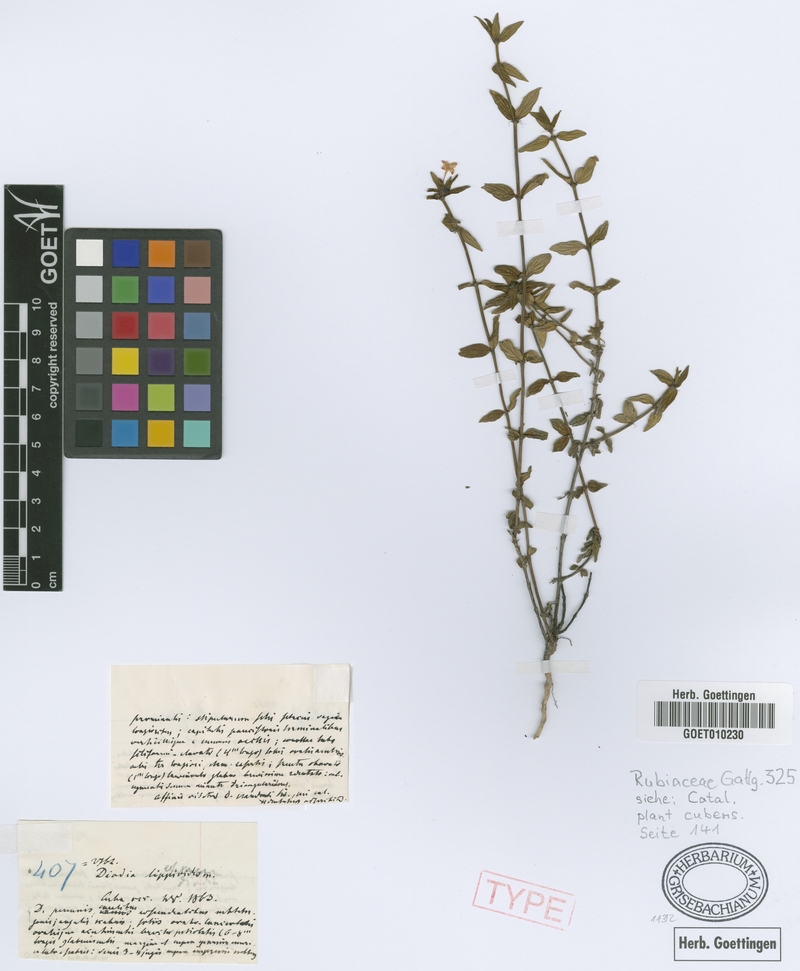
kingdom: Plantae
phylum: Tracheophyta
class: Magnoliopsida
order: Gentianales
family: Rubiaceae
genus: Hexasepalum
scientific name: Hexasepalum lippioides
